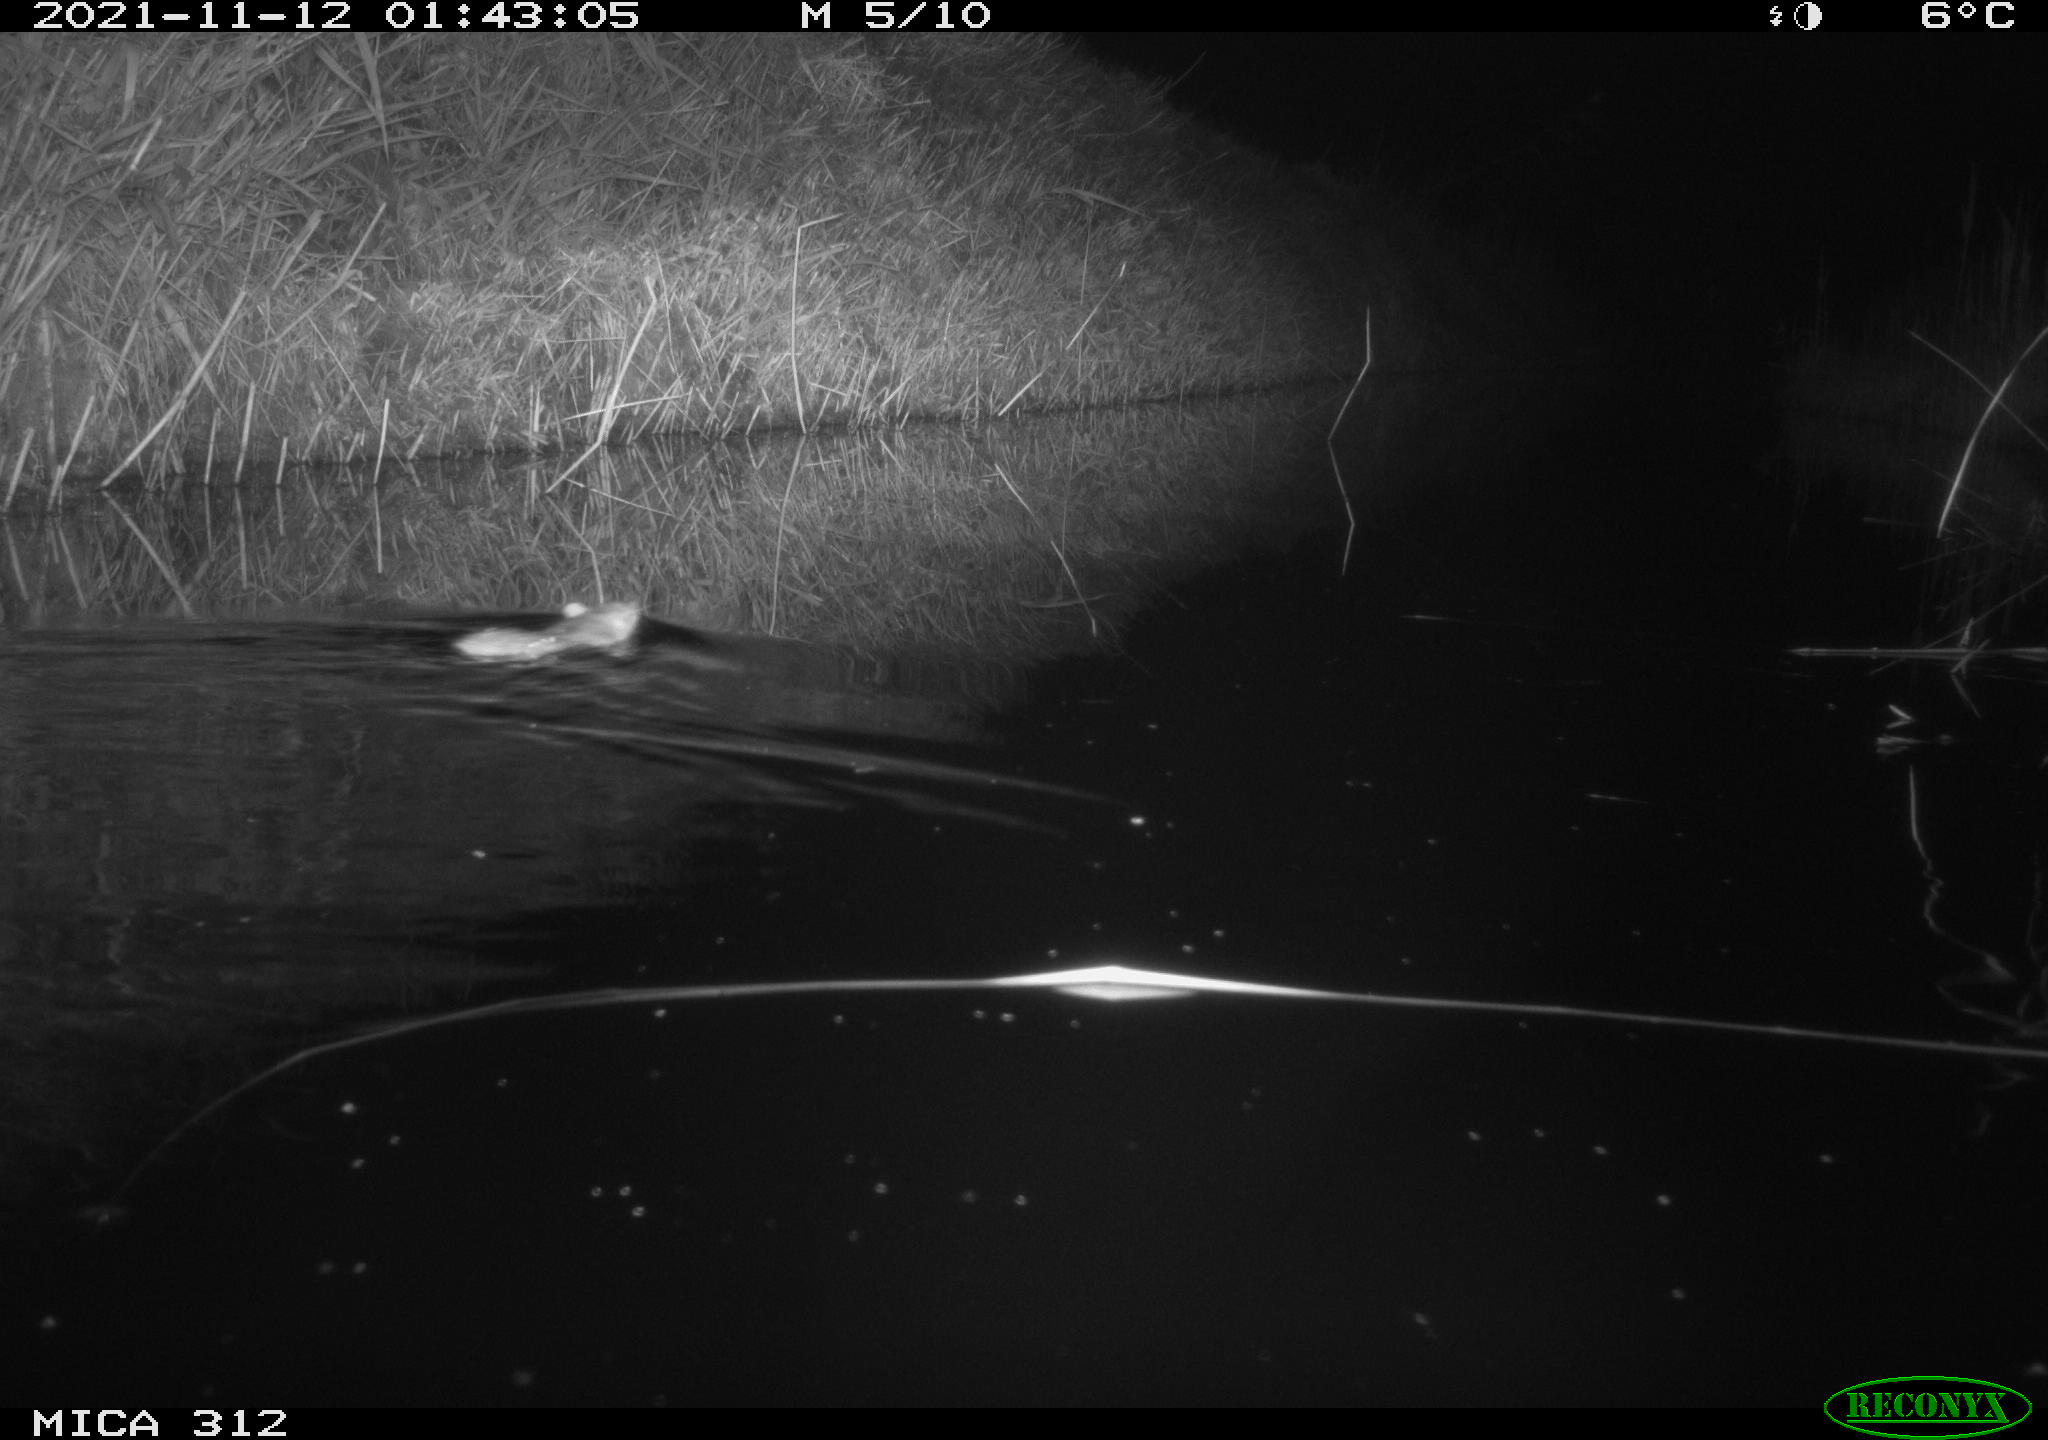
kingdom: Animalia
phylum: Chordata
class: Mammalia
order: Rodentia
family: Muridae
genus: Rattus
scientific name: Rattus norvegicus
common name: Brown rat
